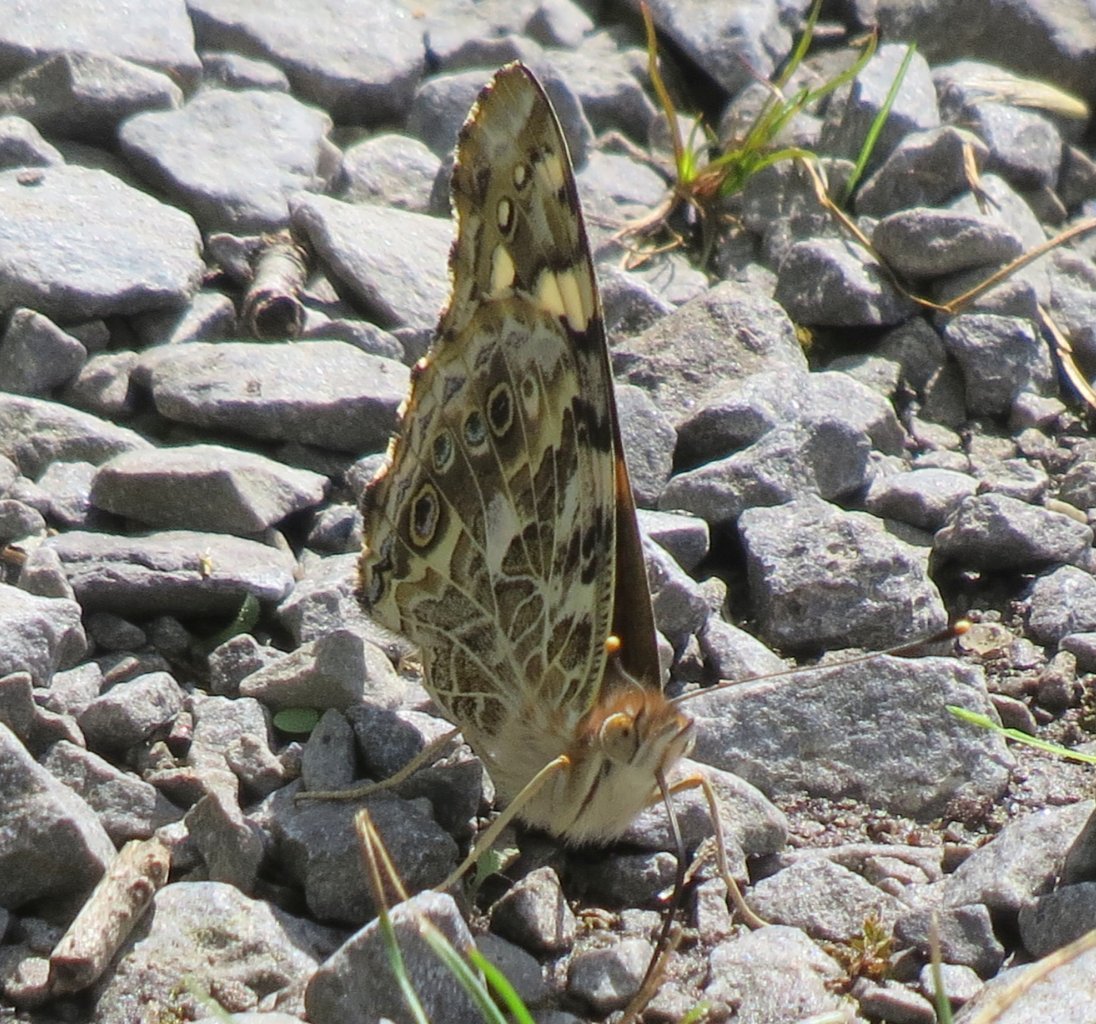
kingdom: Animalia
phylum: Arthropoda
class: Insecta
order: Lepidoptera
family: Nymphalidae
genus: Vanessa
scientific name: Vanessa cardui
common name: Painted Lady
